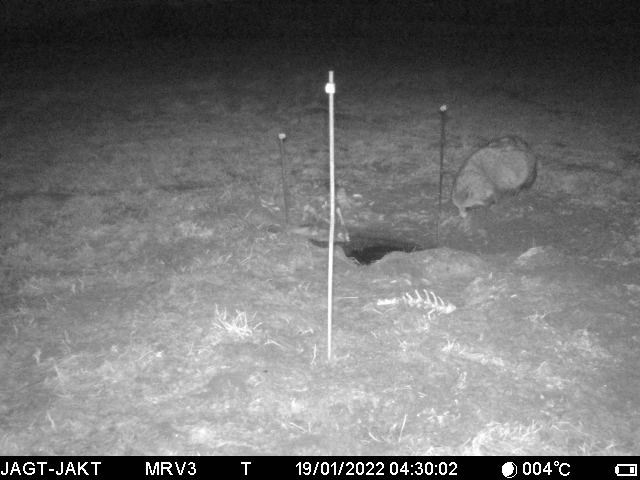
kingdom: Animalia
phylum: Chordata
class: Mammalia
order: Carnivora
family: Canidae
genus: Nyctereutes
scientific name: Nyctereutes procyonoides
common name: Mårhund
